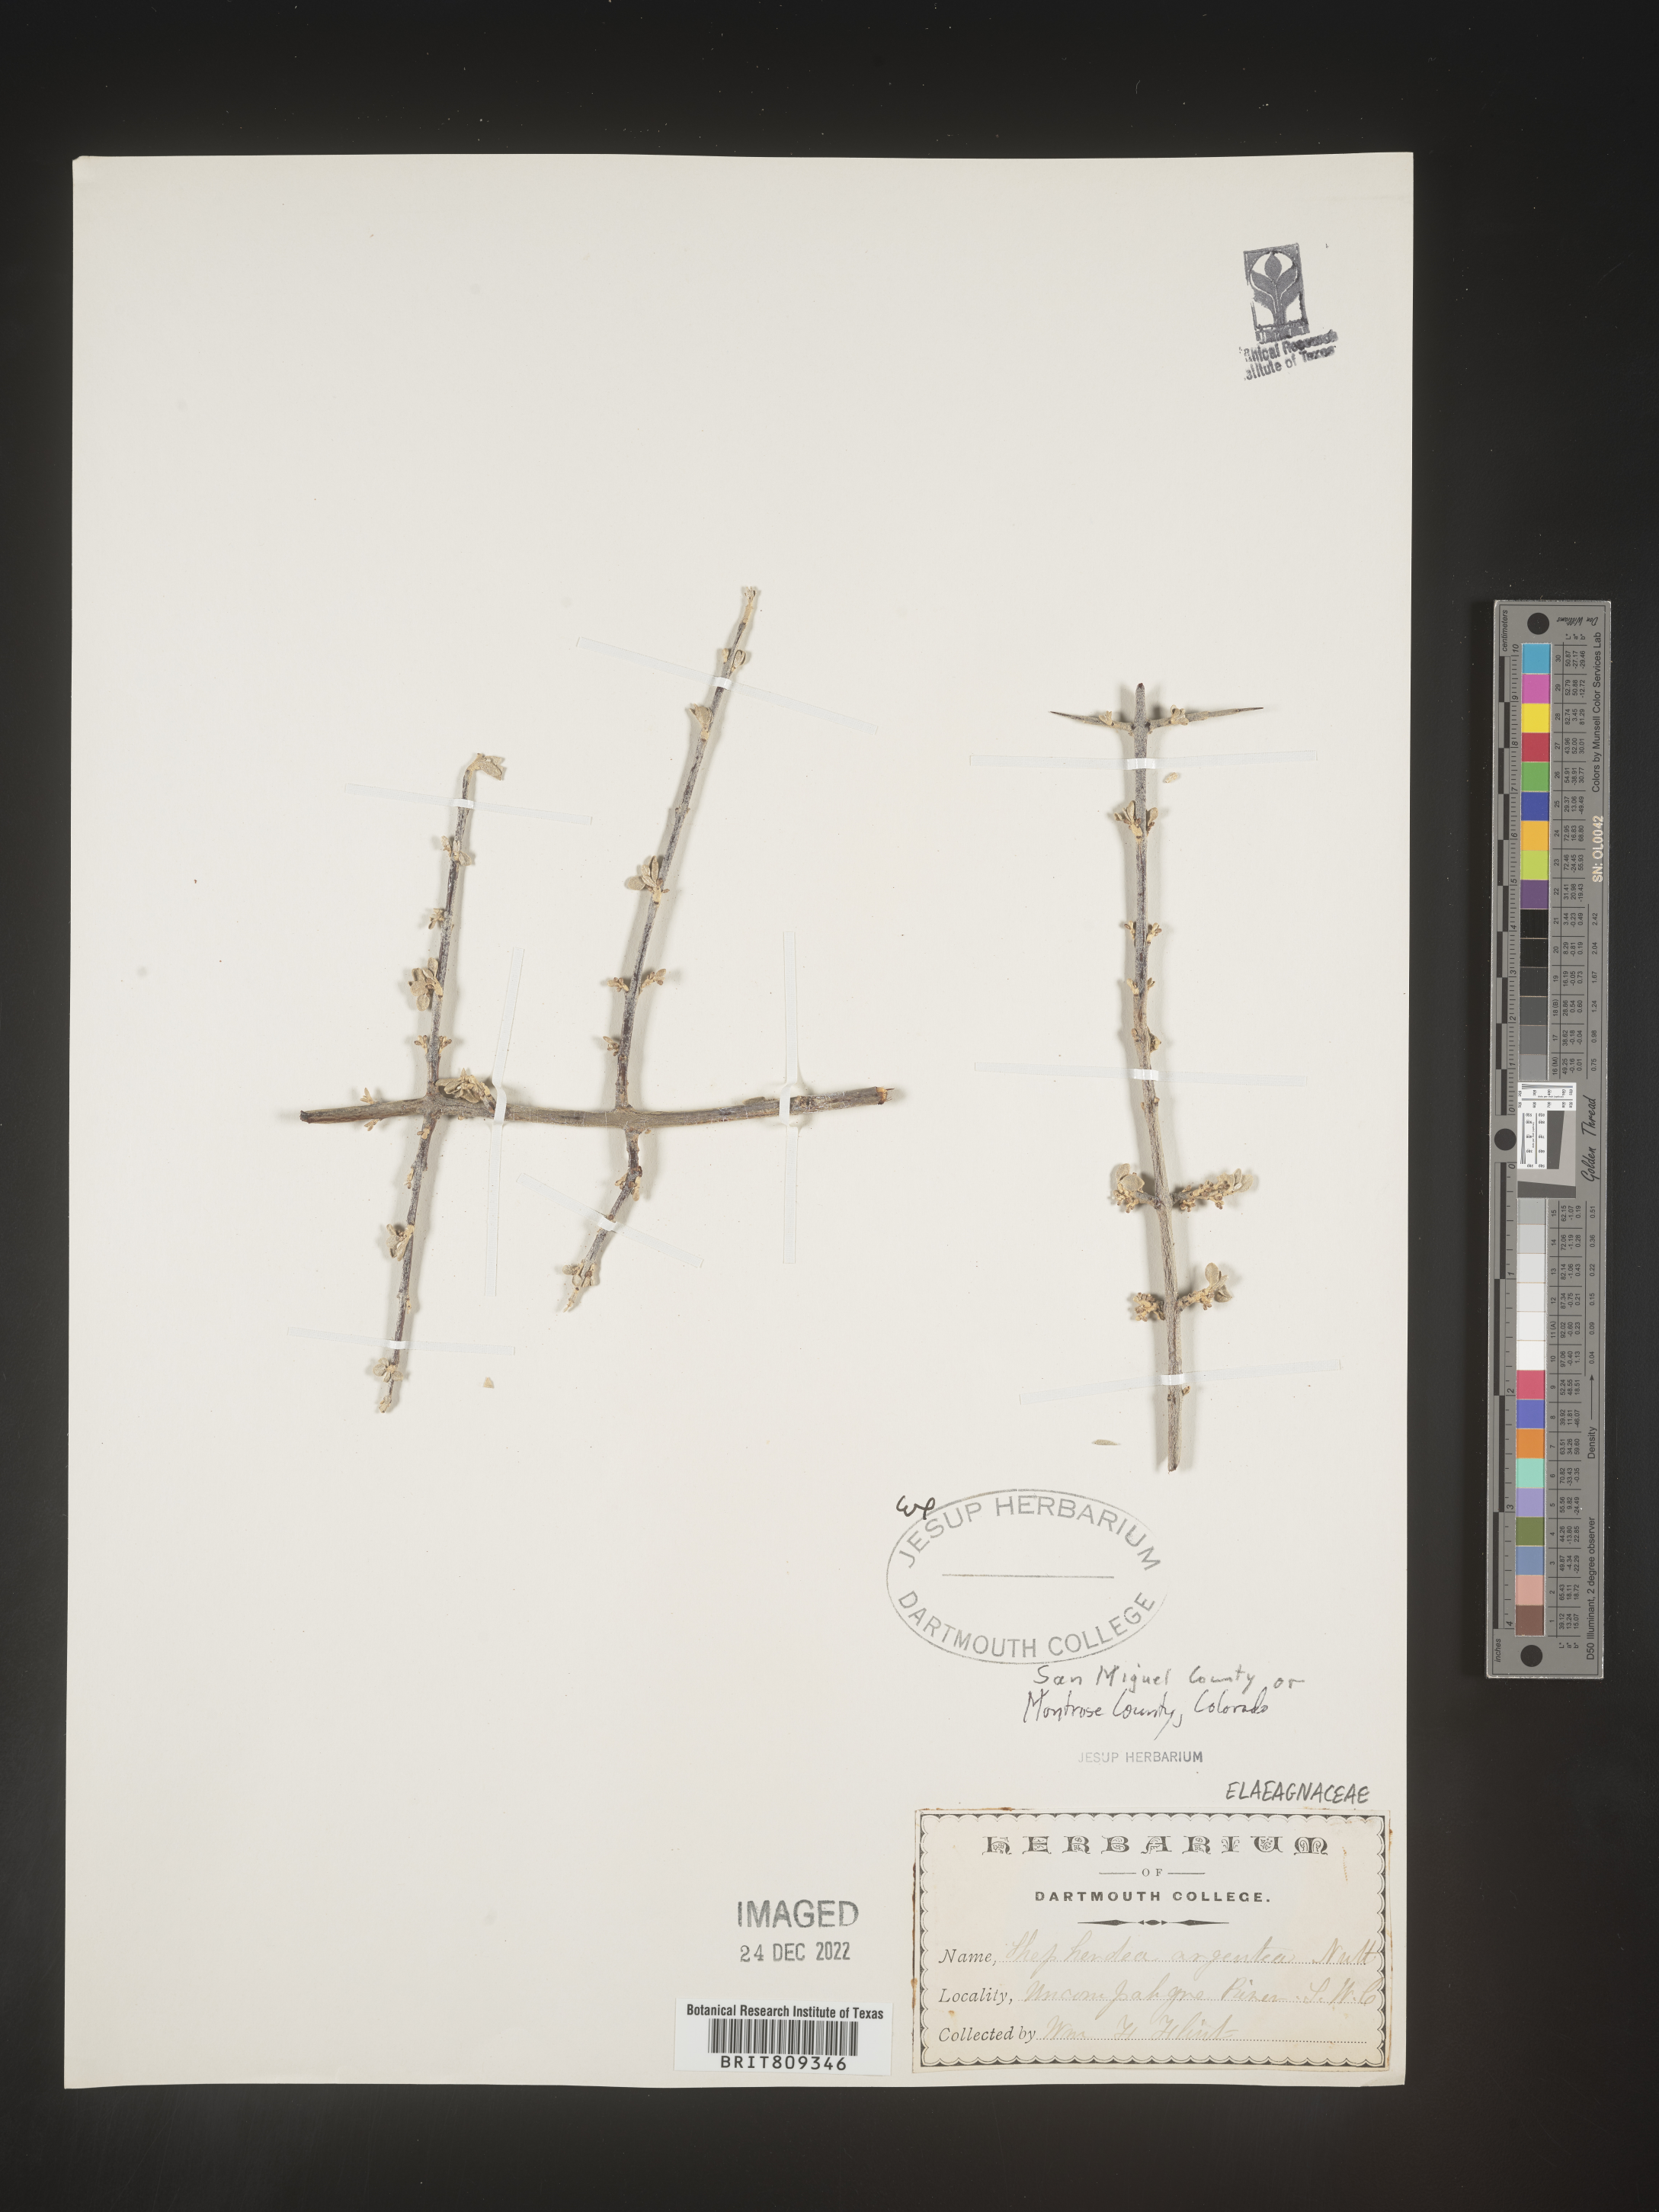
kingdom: Plantae
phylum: Tracheophyta
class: Magnoliopsida
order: Rosales
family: Elaeagnaceae
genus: Shepherdia
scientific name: Shepherdia argentea
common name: Silver buffaloberry
